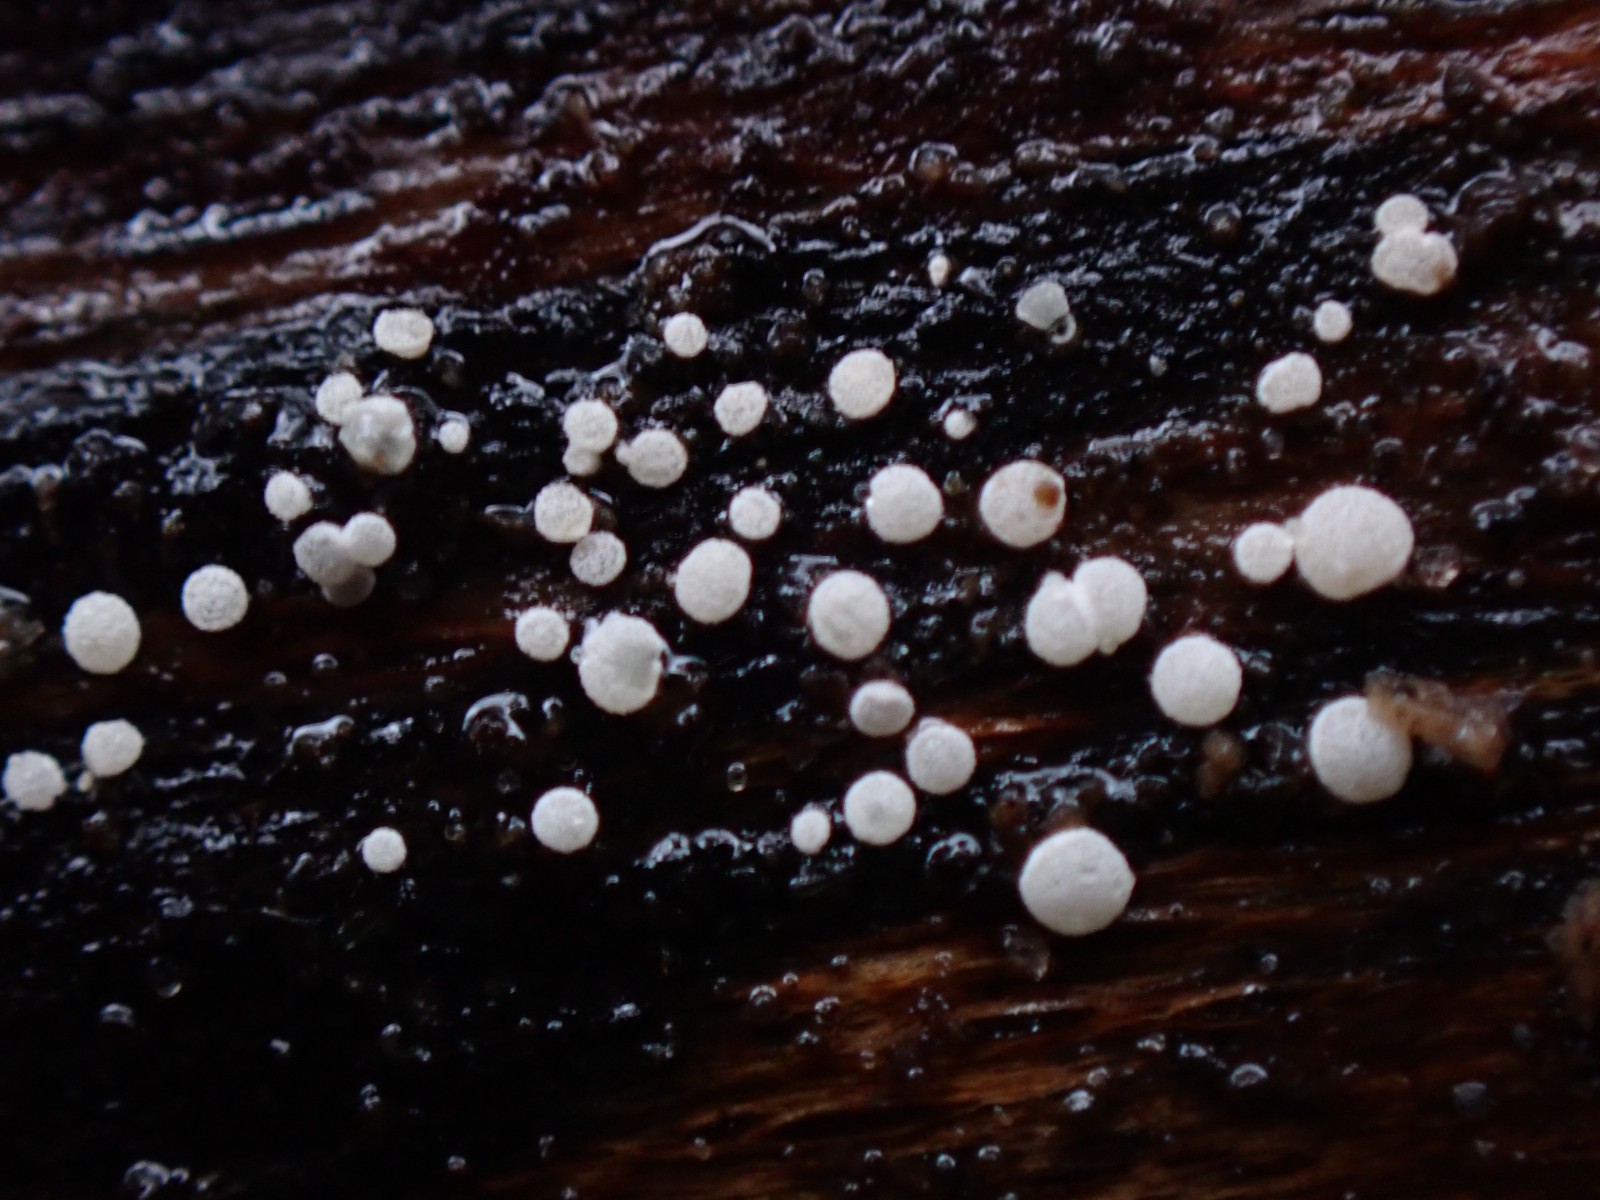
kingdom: Fungi
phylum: Ascomycota
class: Leotiomycetes
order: Helotiales
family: Hyaloscyphaceae
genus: Polydesmia
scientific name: Polydesmia pruinosa
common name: dunskive
